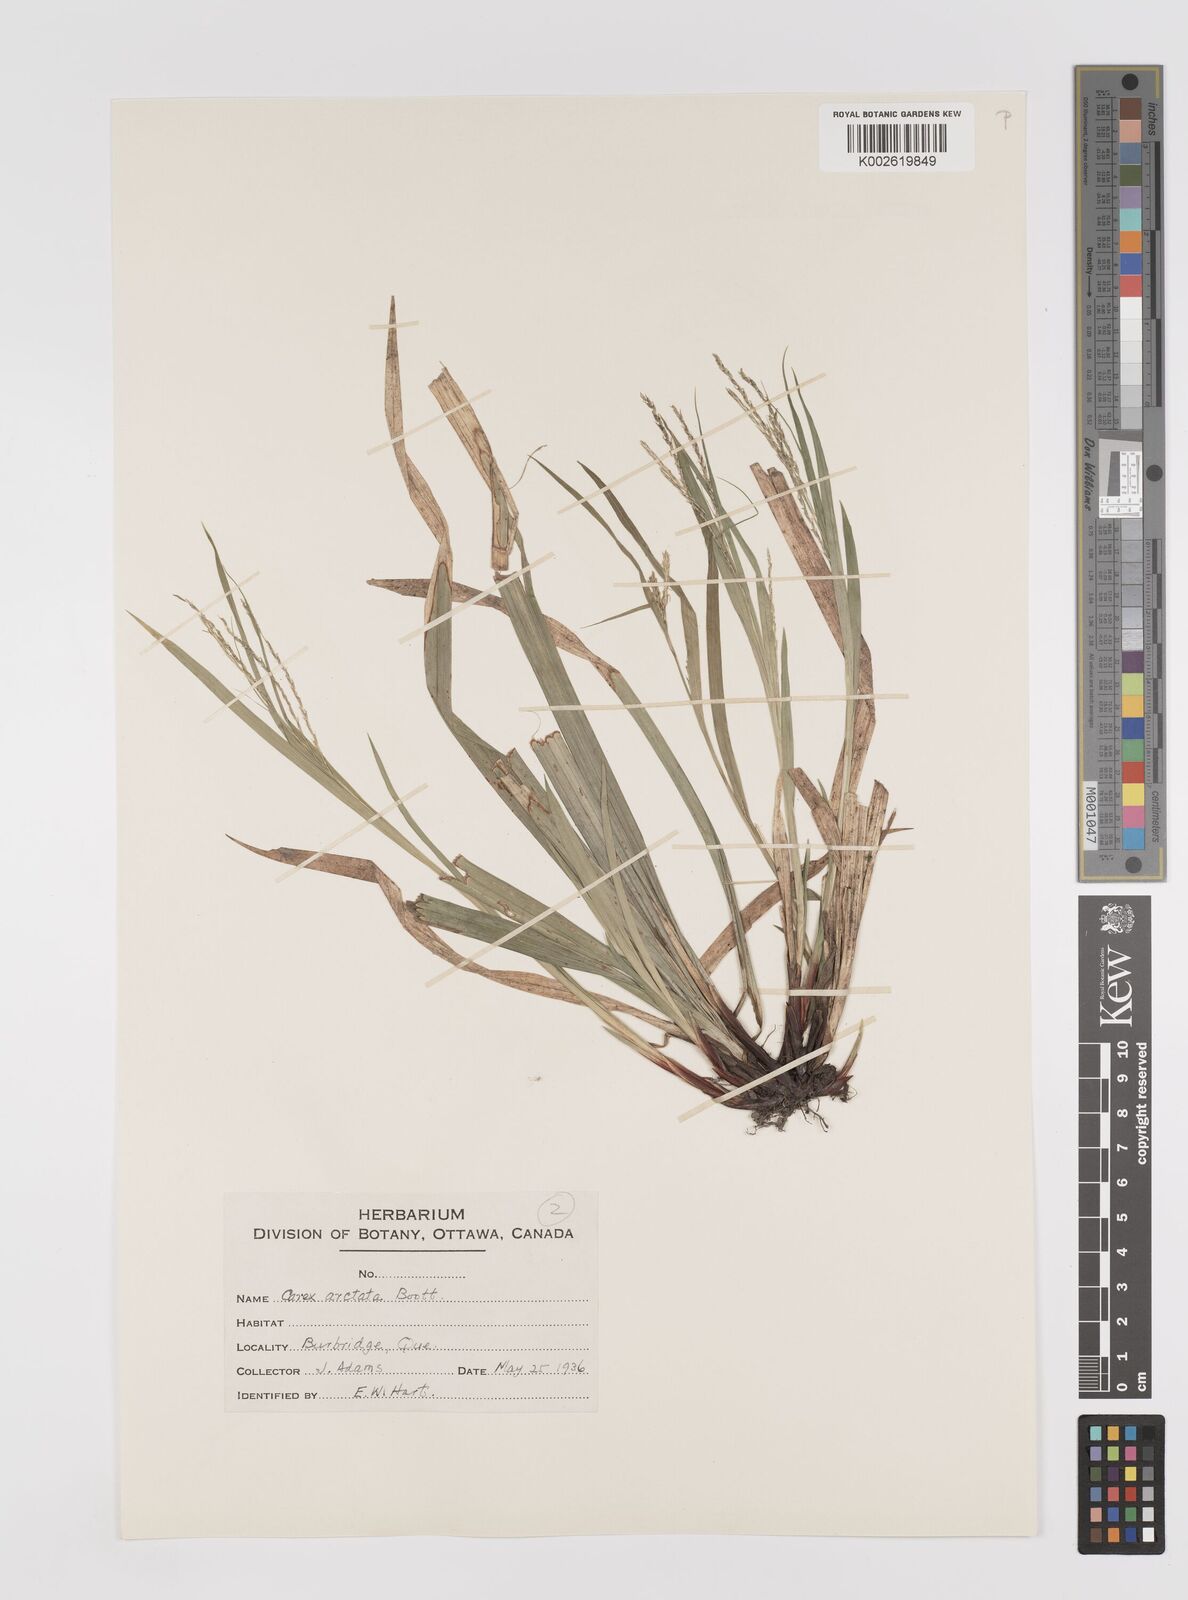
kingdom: Plantae
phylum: Tracheophyta
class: Liliopsida
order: Poales
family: Cyperaceae
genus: Carex
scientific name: Carex arctata
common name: Black sedge
